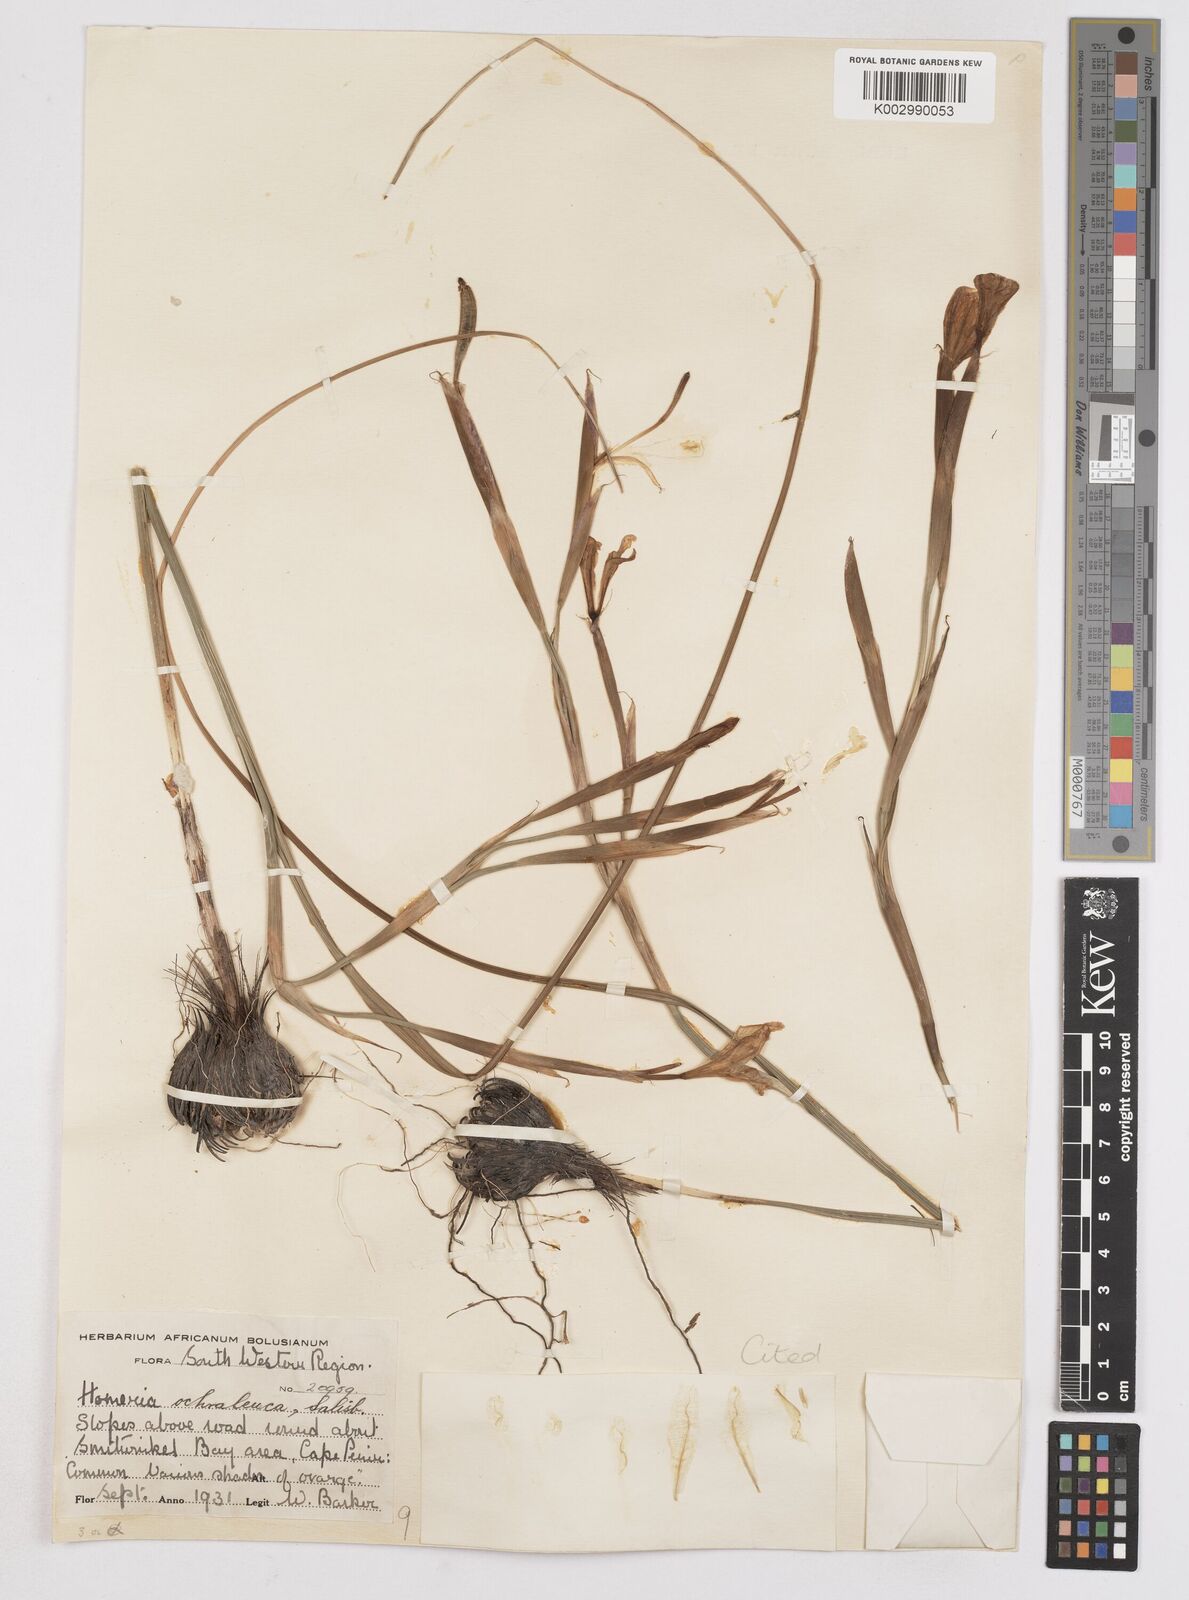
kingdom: Plantae
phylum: Tracheophyta
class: Liliopsida
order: Asparagales
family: Iridaceae
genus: Moraea
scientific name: Moraea ochroleuca
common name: Red tulp
